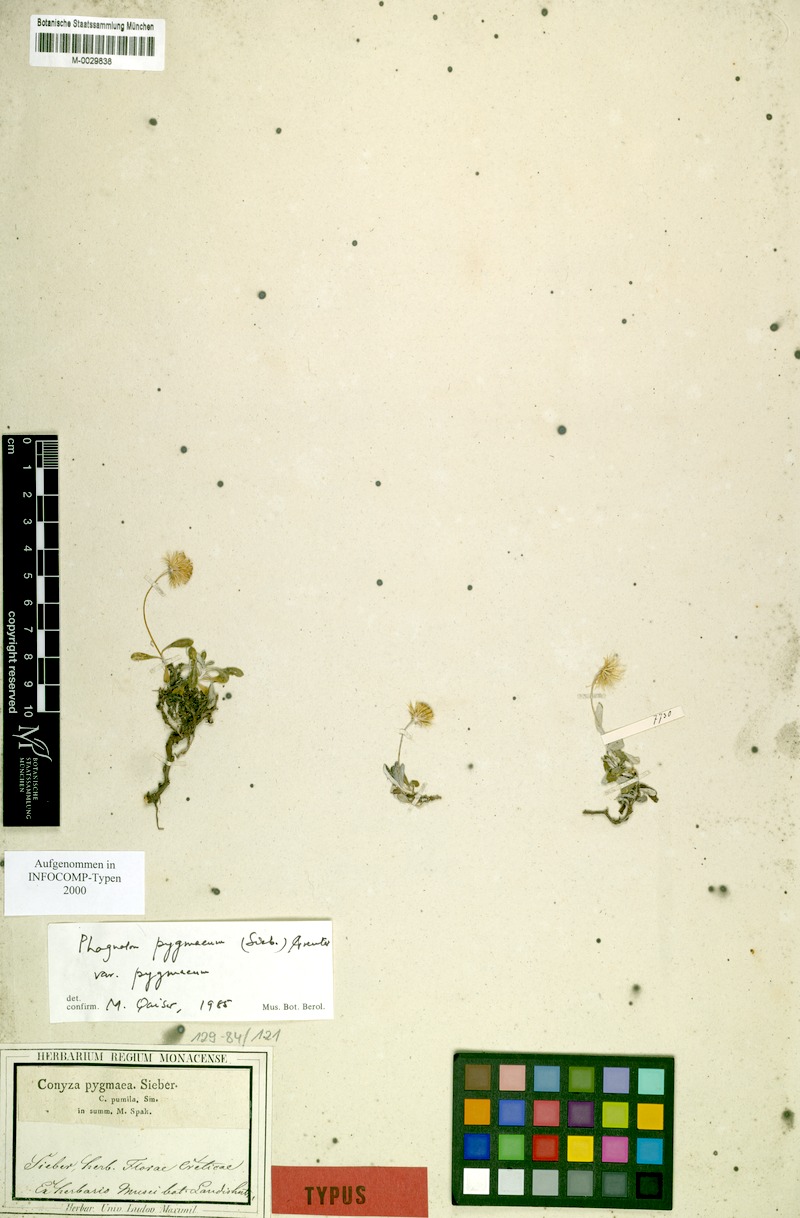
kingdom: Plantae
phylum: Tracheophyta
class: Magnoliopsida
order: Asterales
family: Asteraceae
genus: Phagnalon
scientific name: Phagnalon pygmaeum
